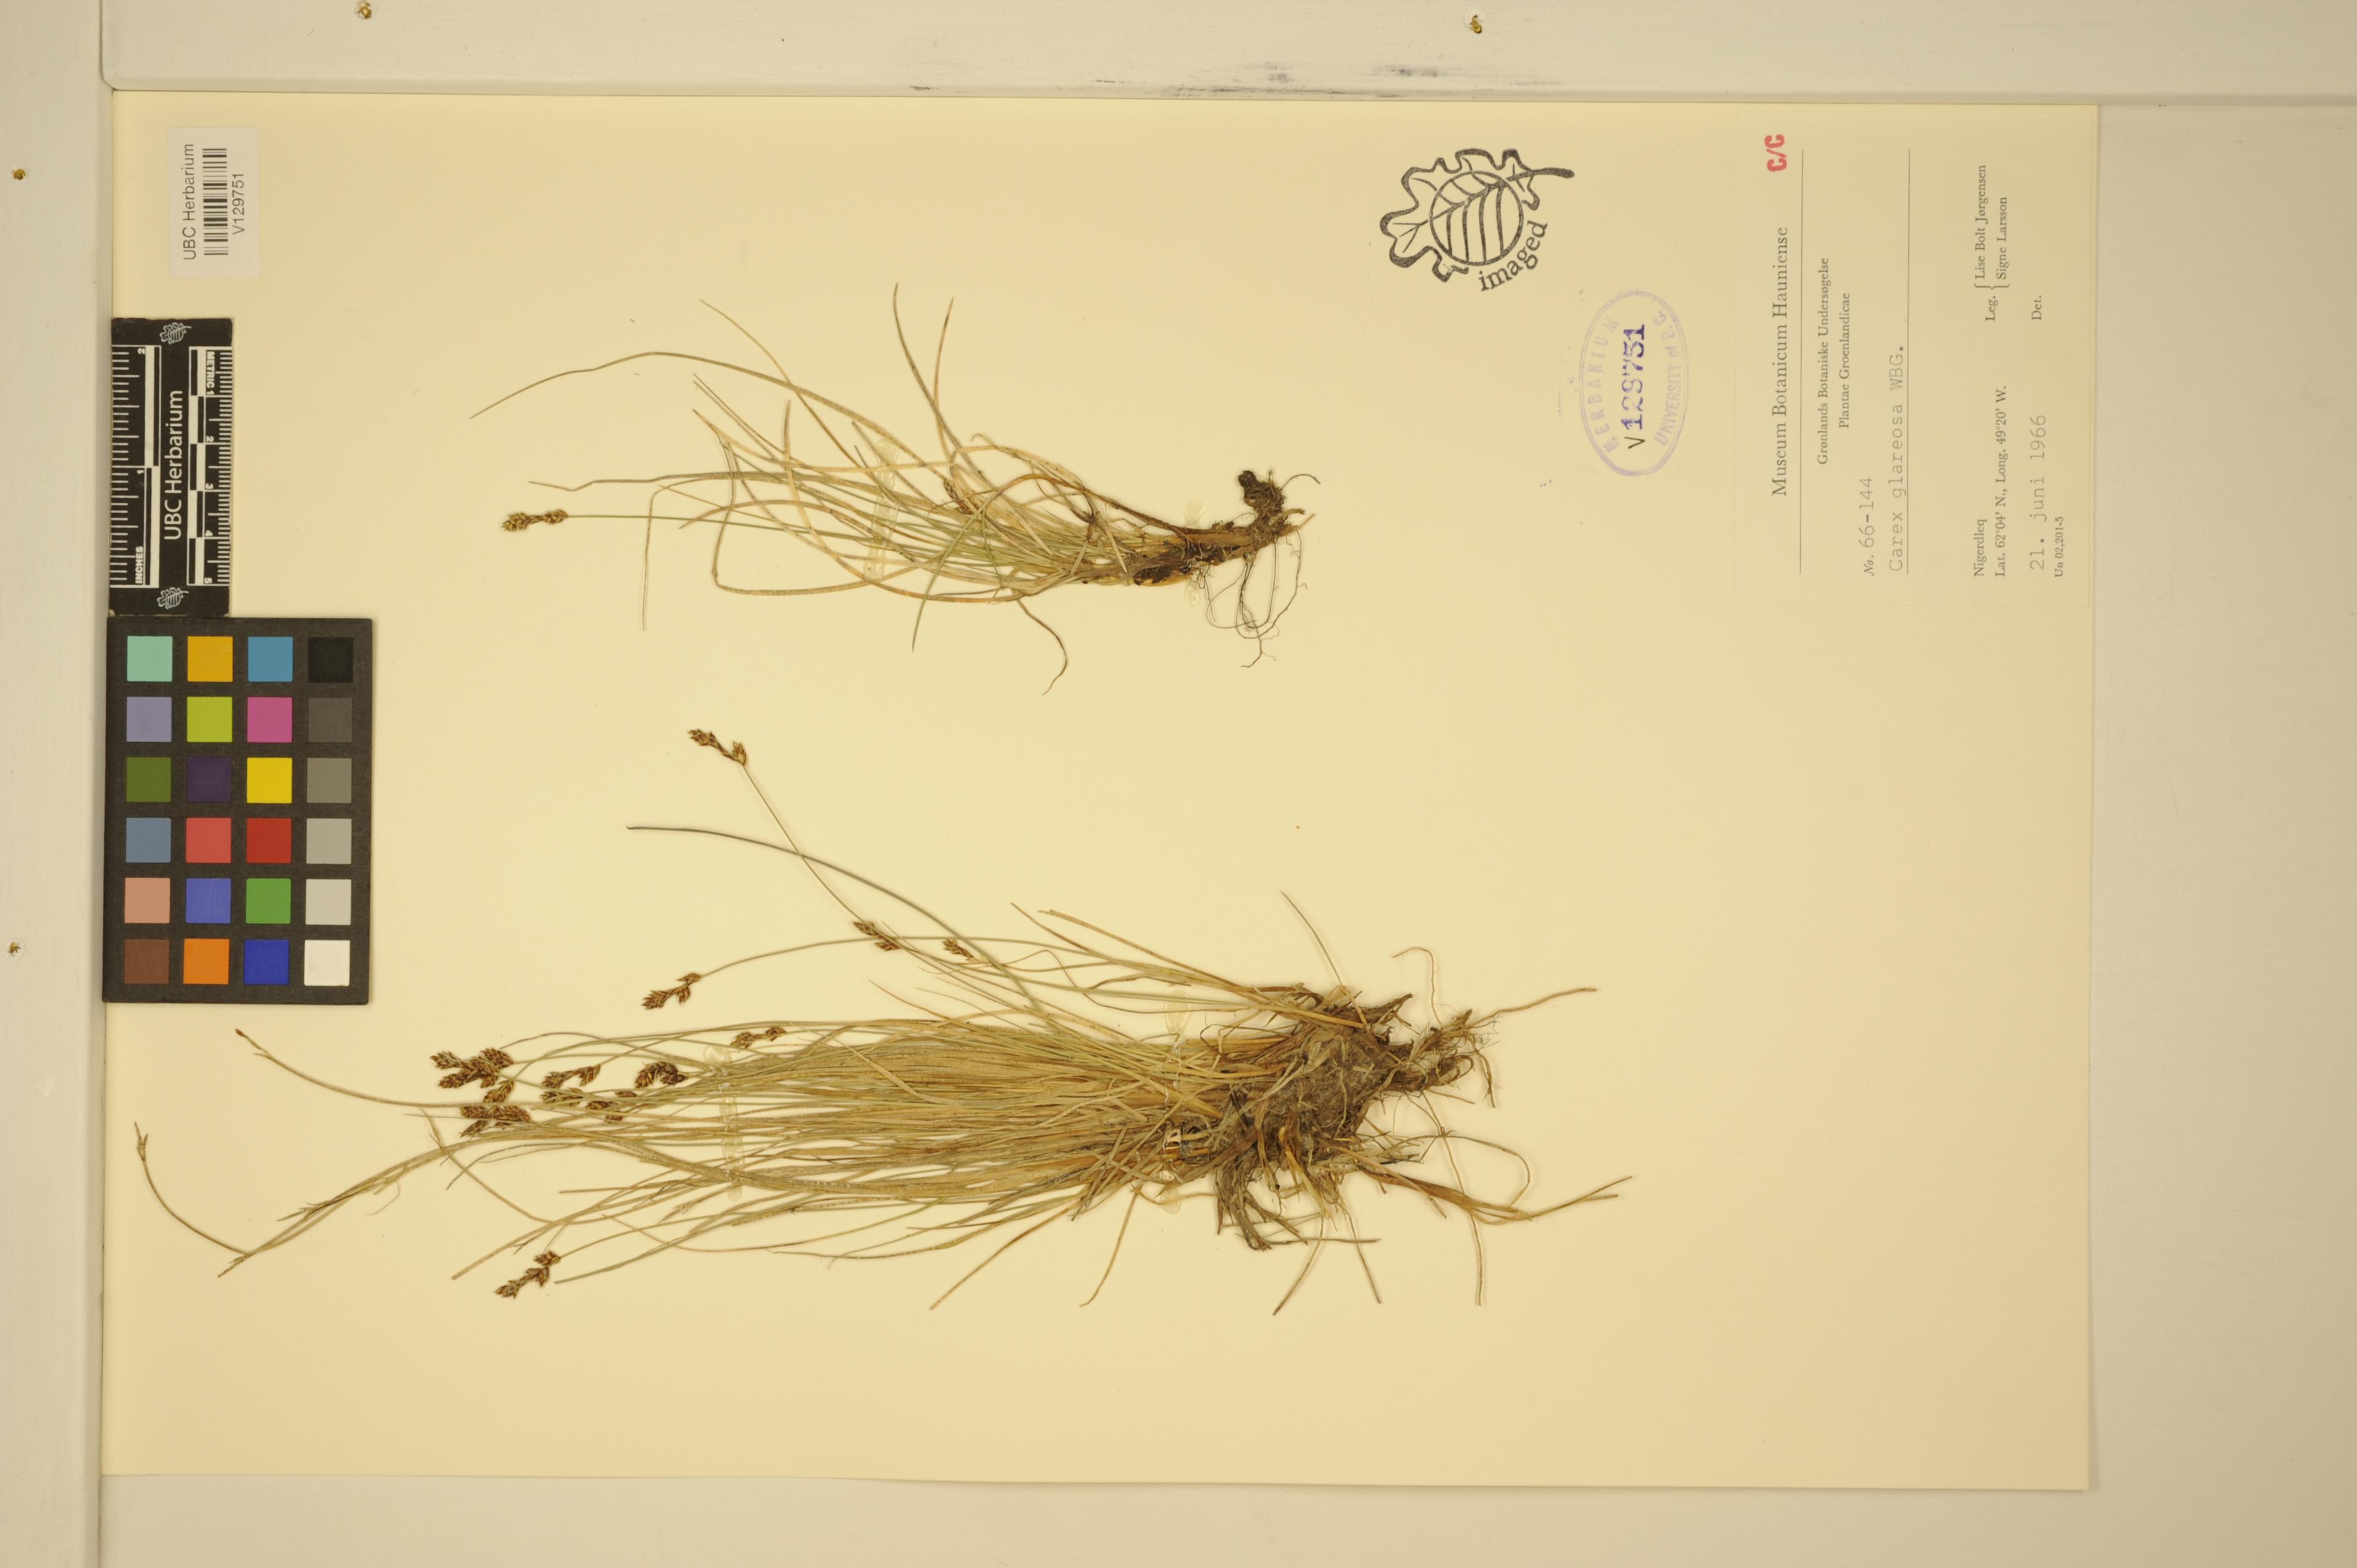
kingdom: Plantae
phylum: Tracheophyta
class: Liliopsida
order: Poales
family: Cyperaceae
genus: Carex
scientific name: Carex glareosa
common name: Clustered sedge
